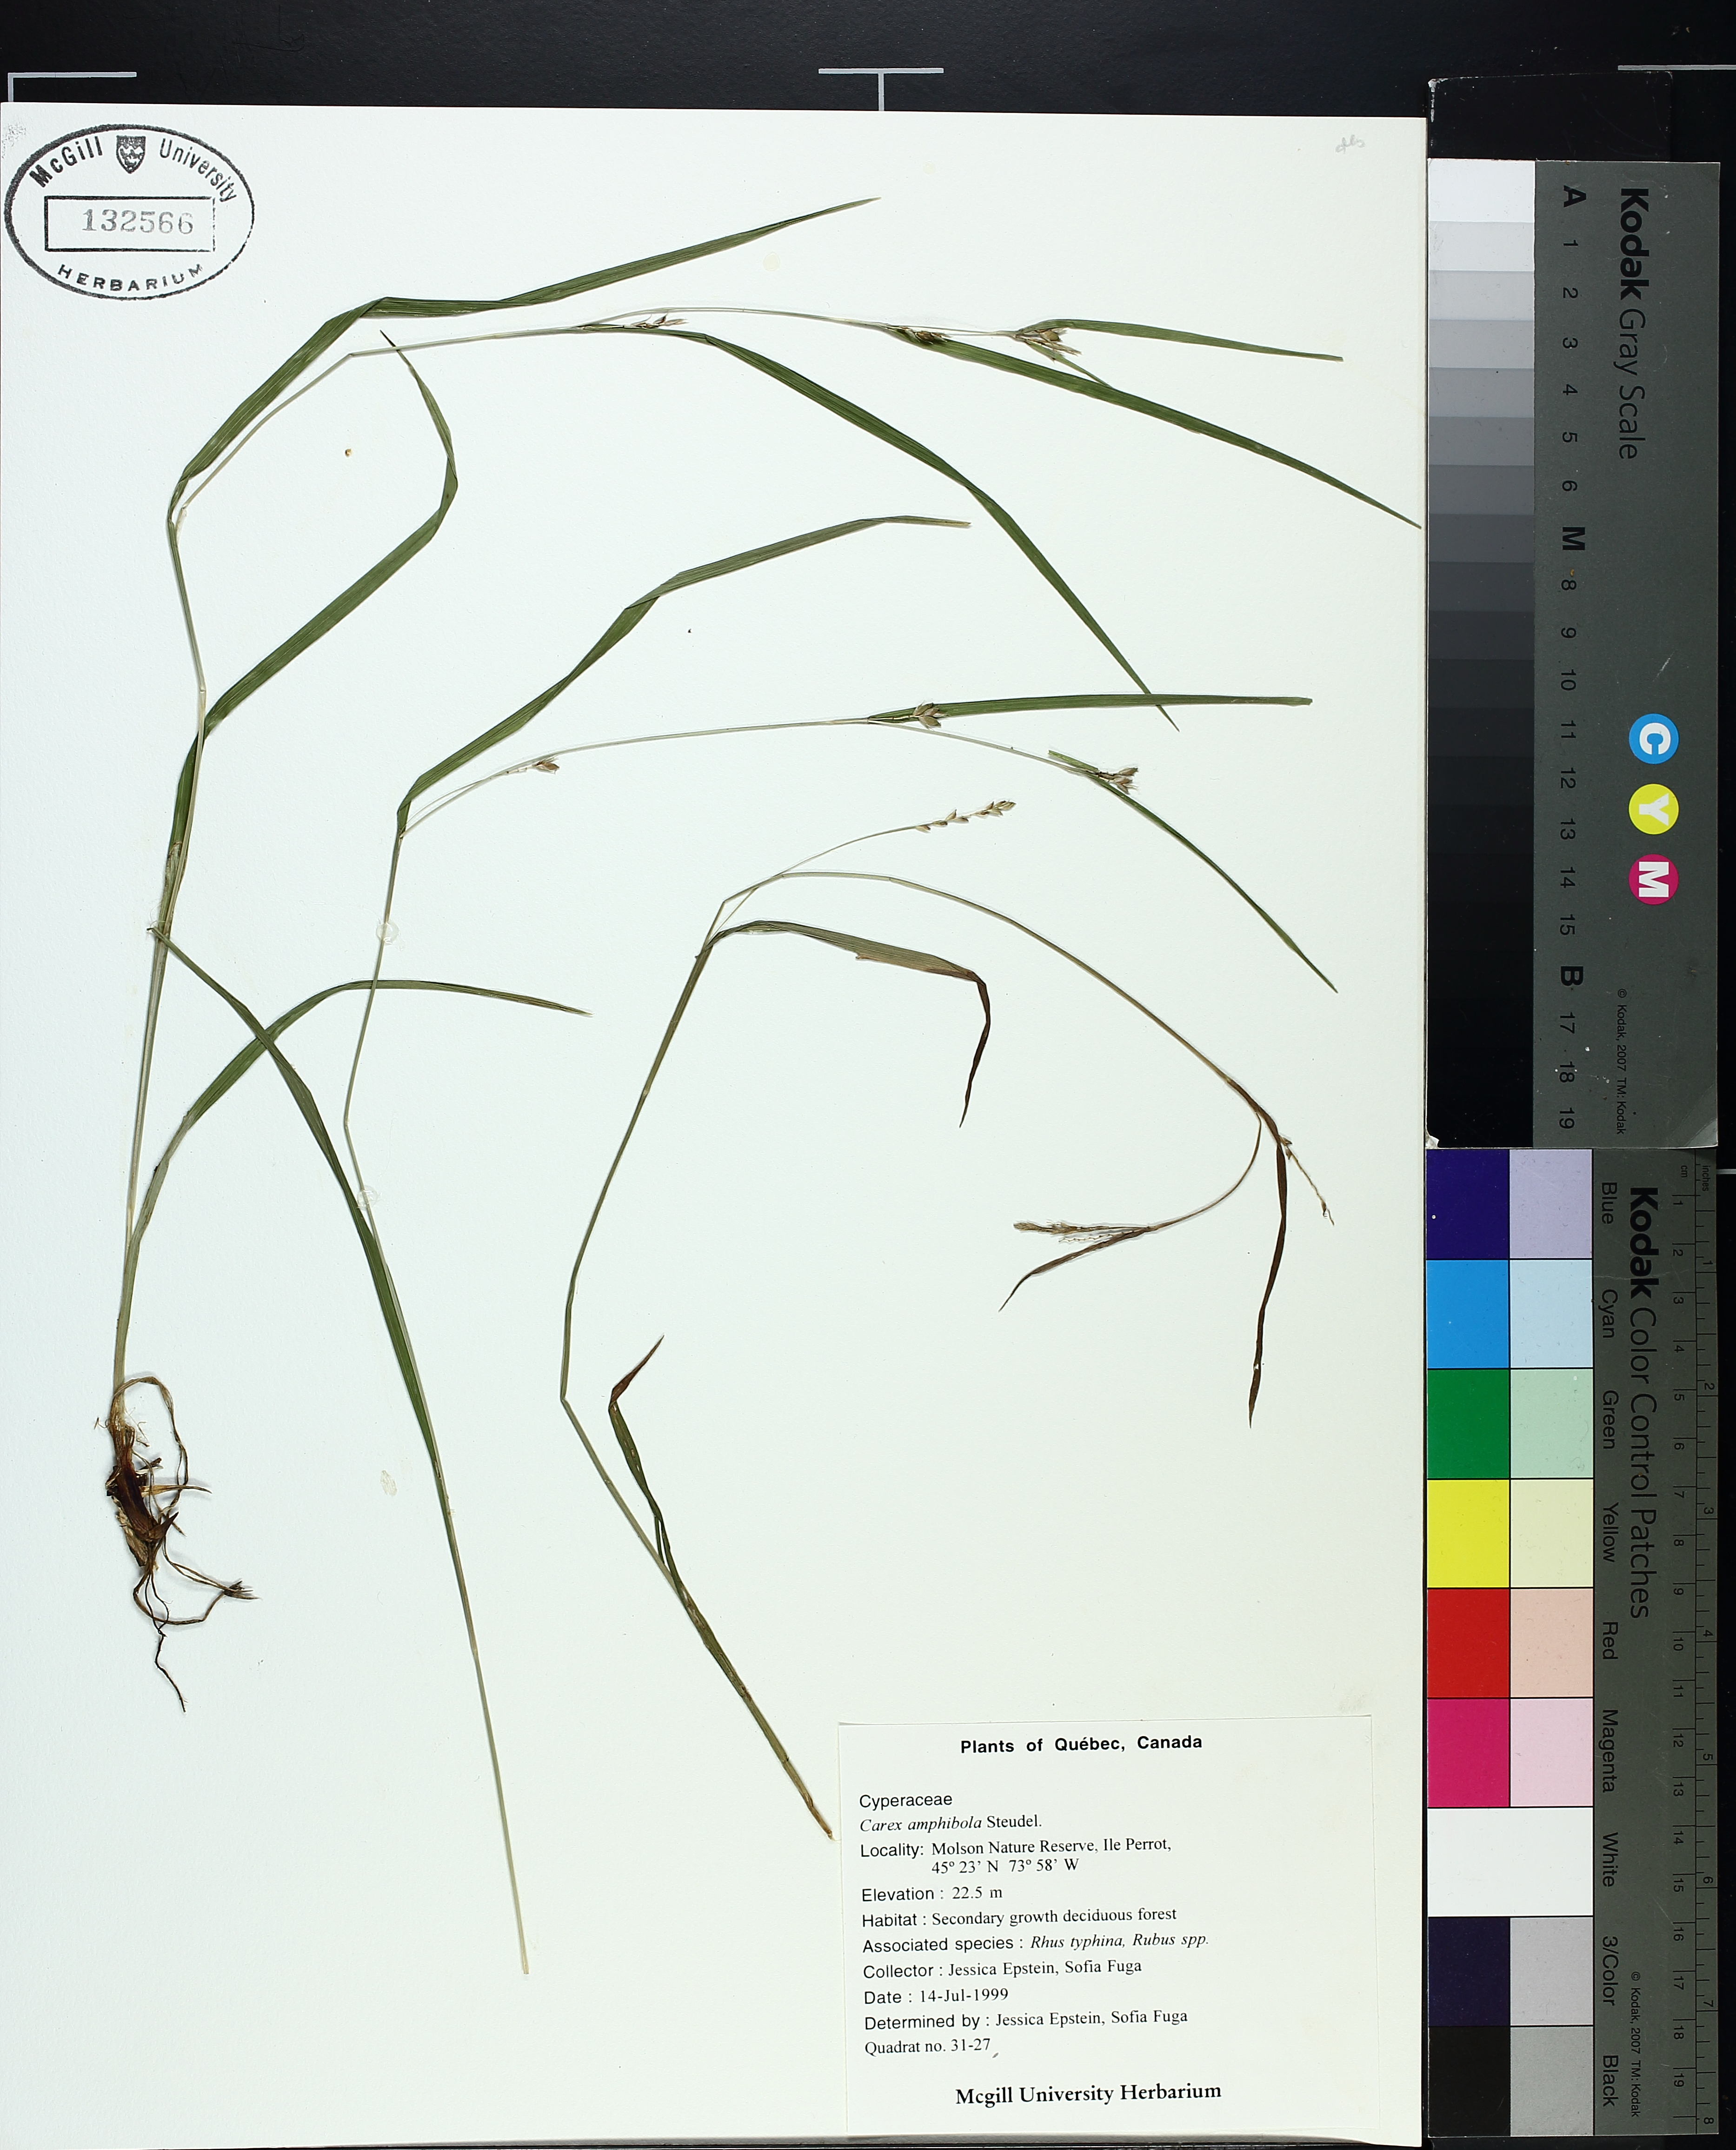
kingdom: Plantae
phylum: Tracheophyta
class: Liliopsida
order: Poales
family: Cyperaceae
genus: Carex
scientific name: Carex amphibola
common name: Amphibious sedge
